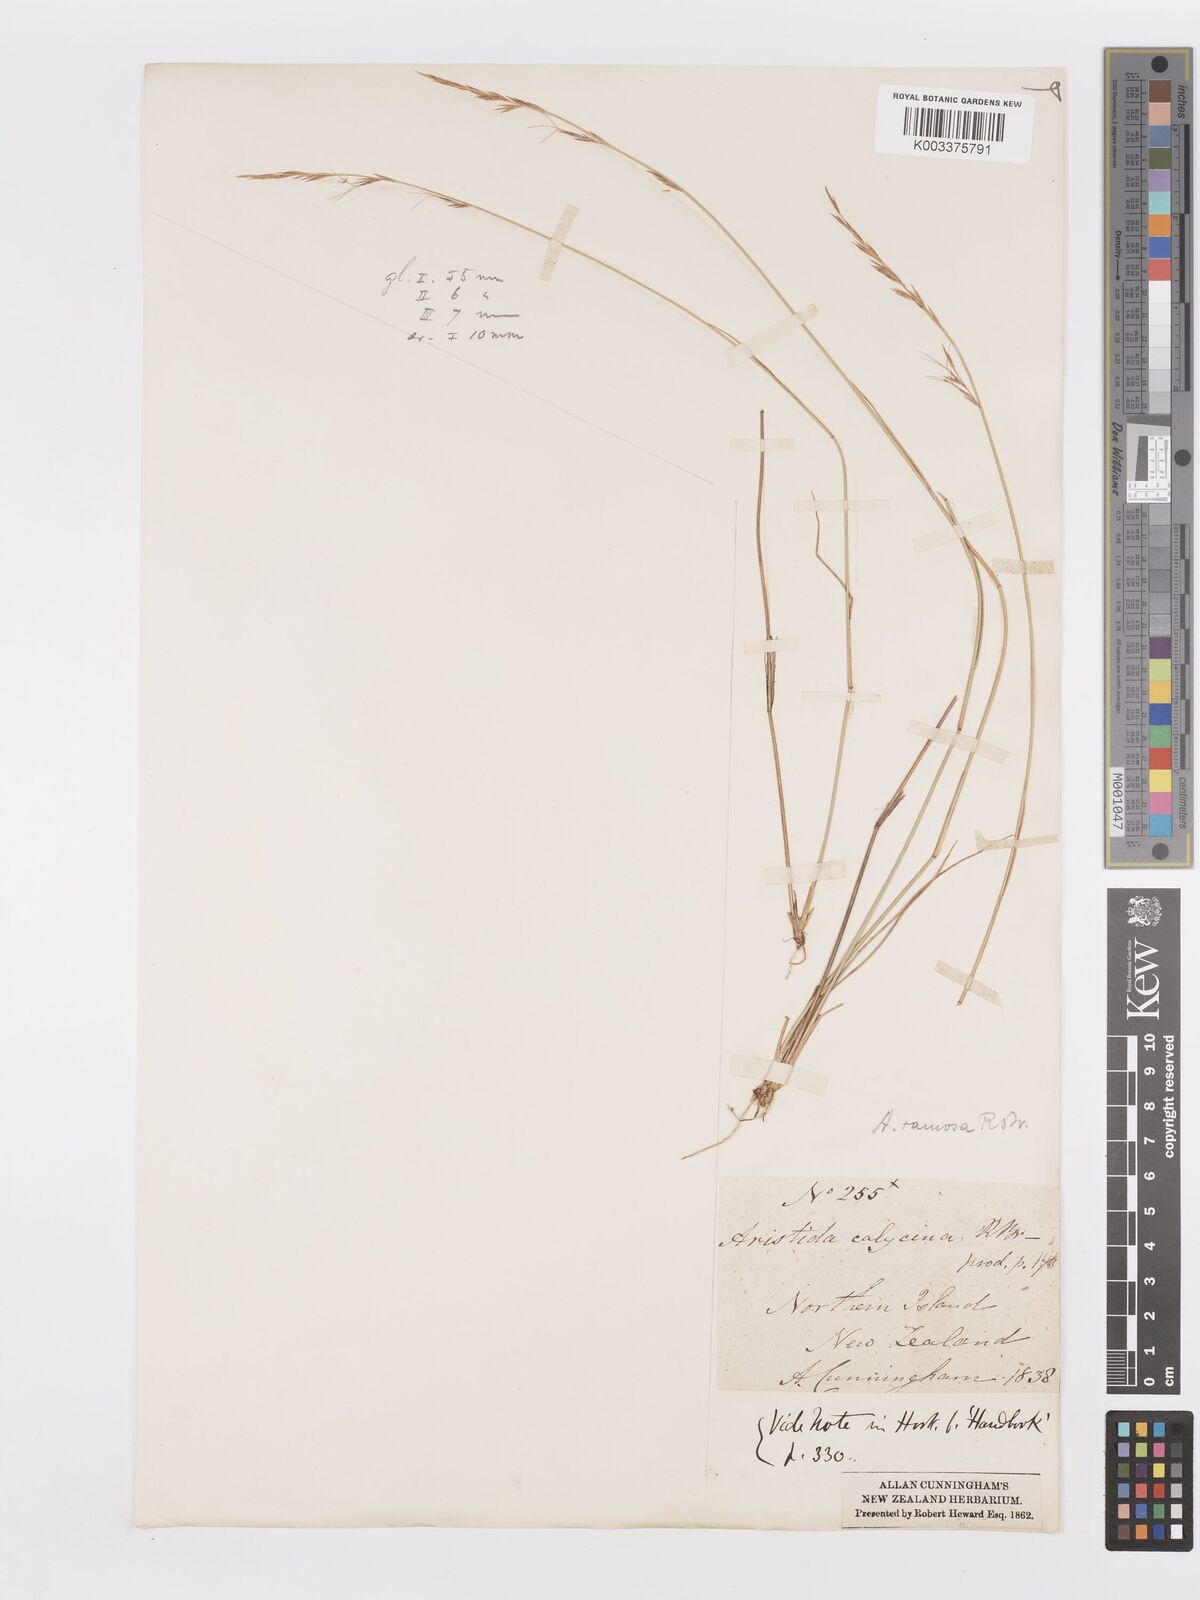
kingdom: Plantae
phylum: Tracheophyta
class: Liliopsida
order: Poales
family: Poaceae
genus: Aristida
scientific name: Aristida ramosa
